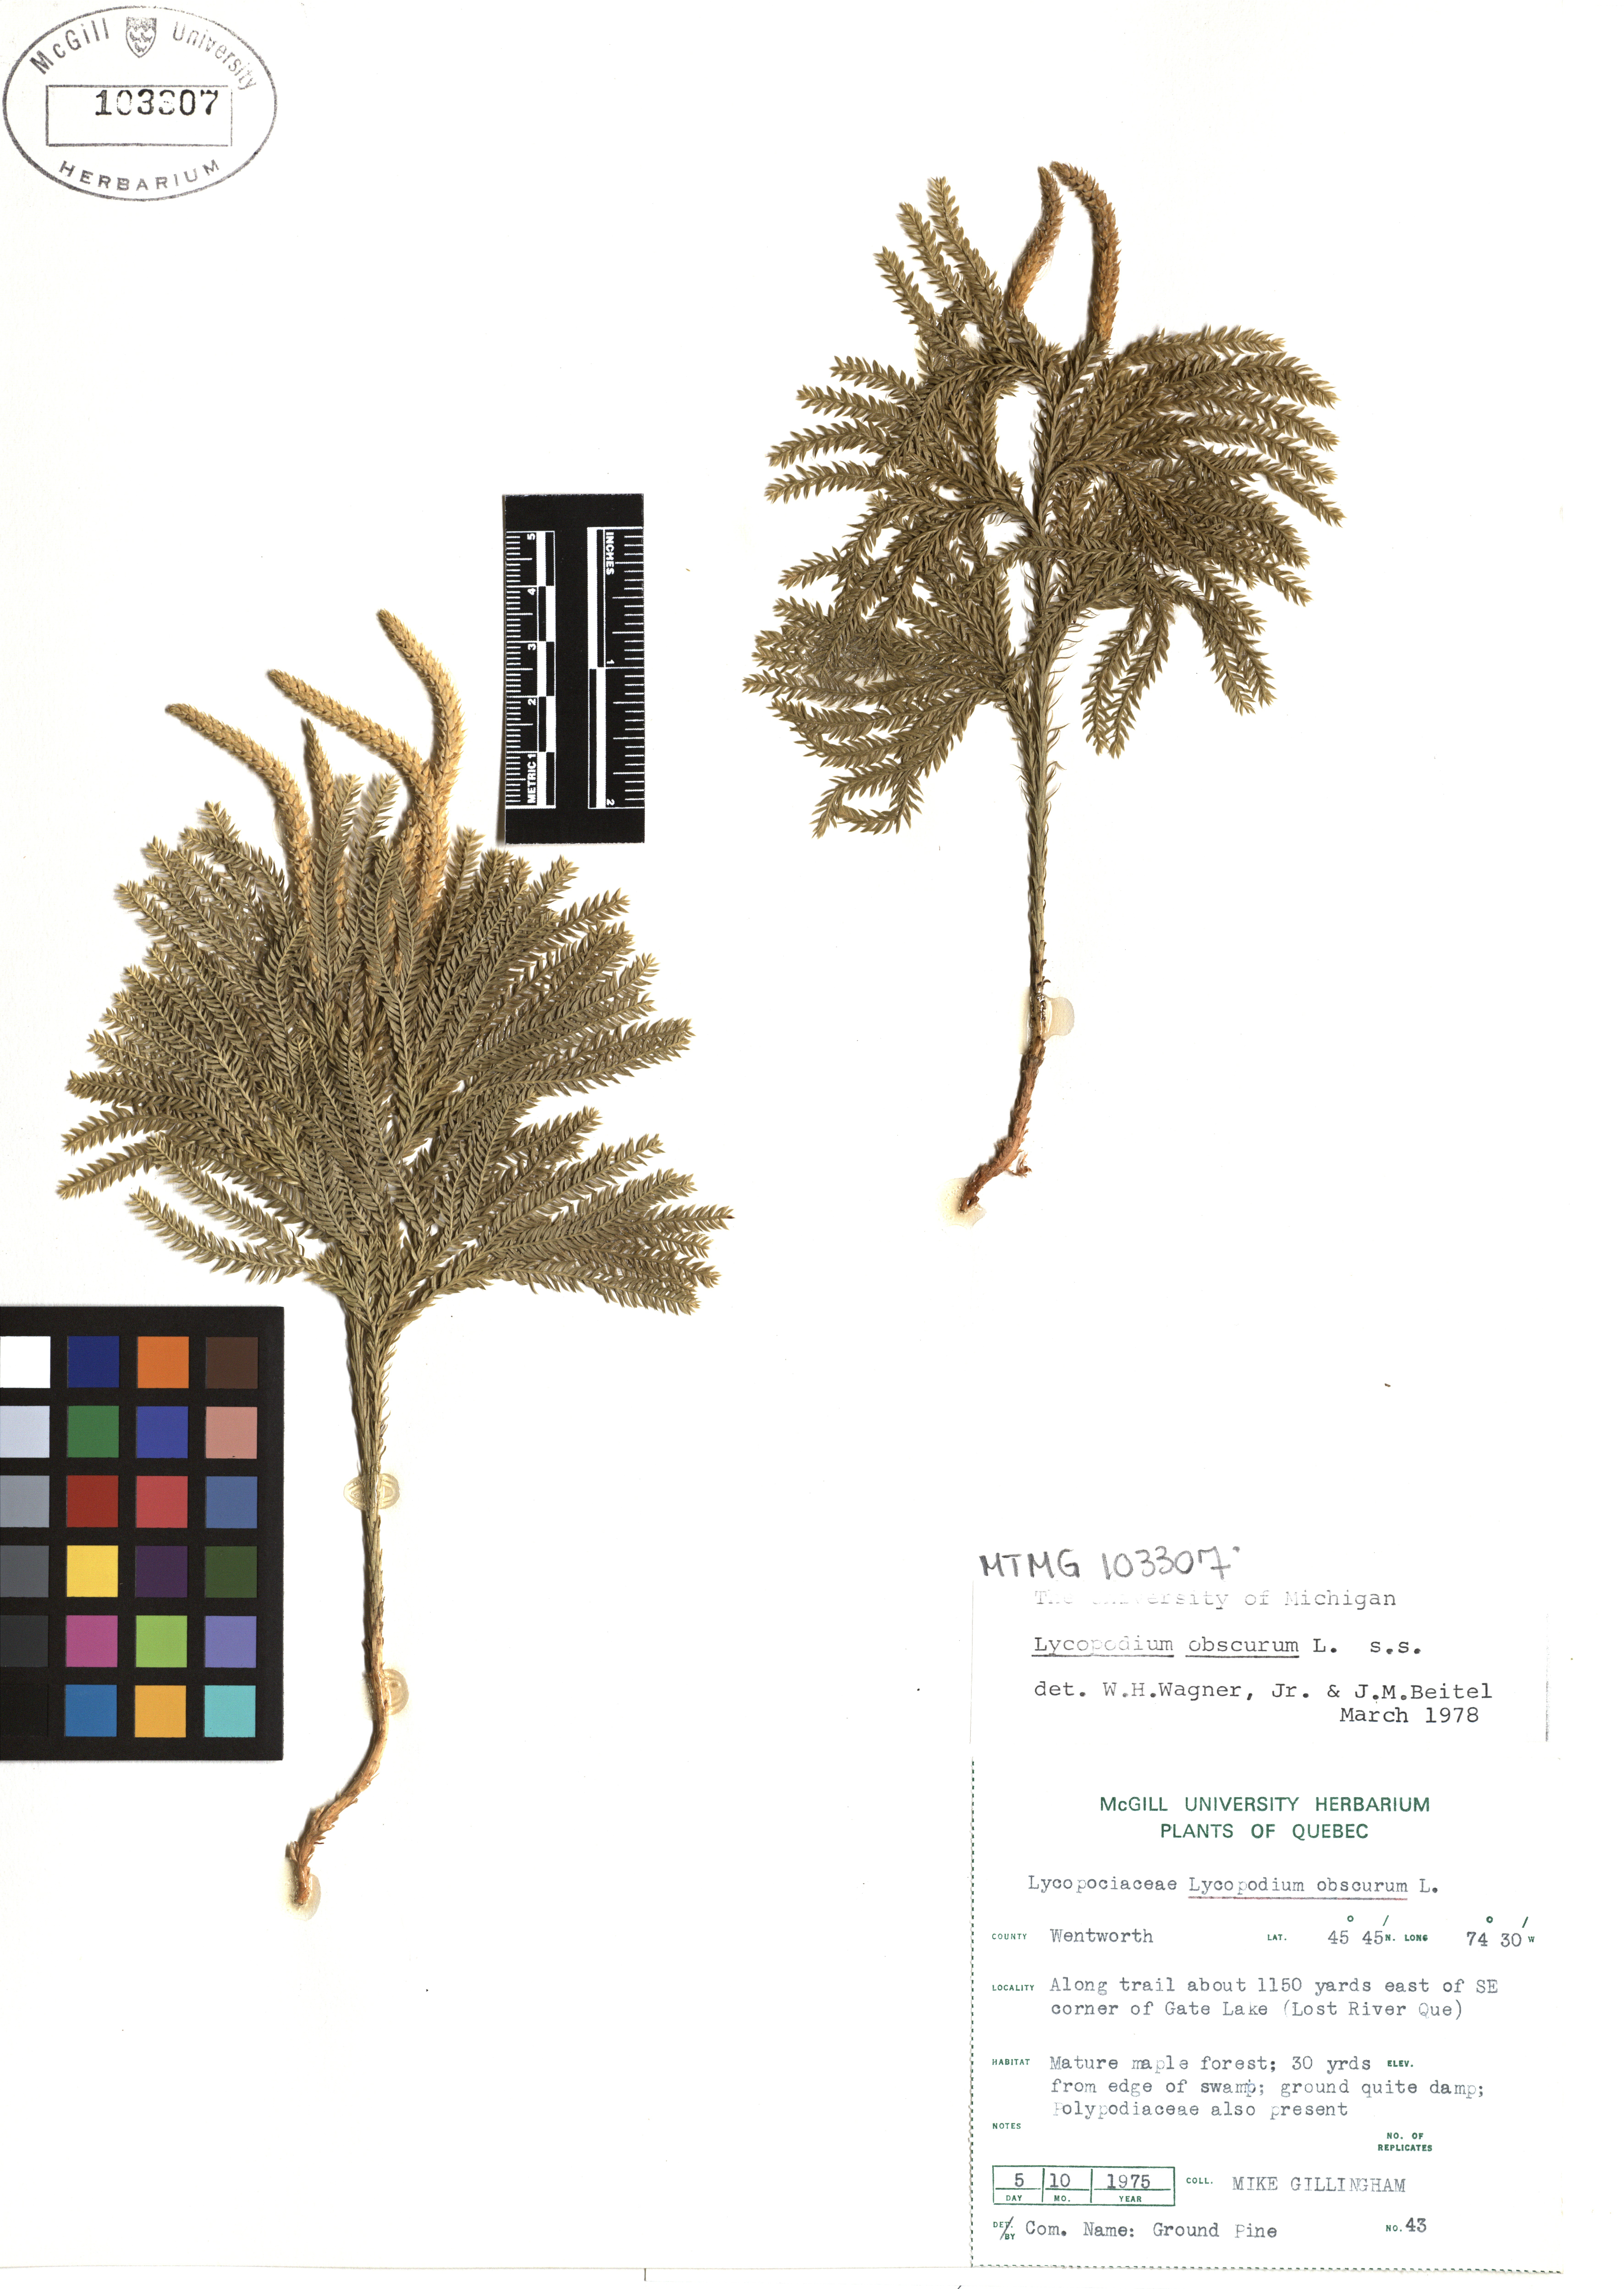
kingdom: Plantae
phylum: Tracheophyta
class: Lycopodiopsida
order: Lycopodiales
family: Lycopodiaceae
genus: Dendrolycopodium
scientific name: Dendrolycopodium obscurum
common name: Common ground-pine
